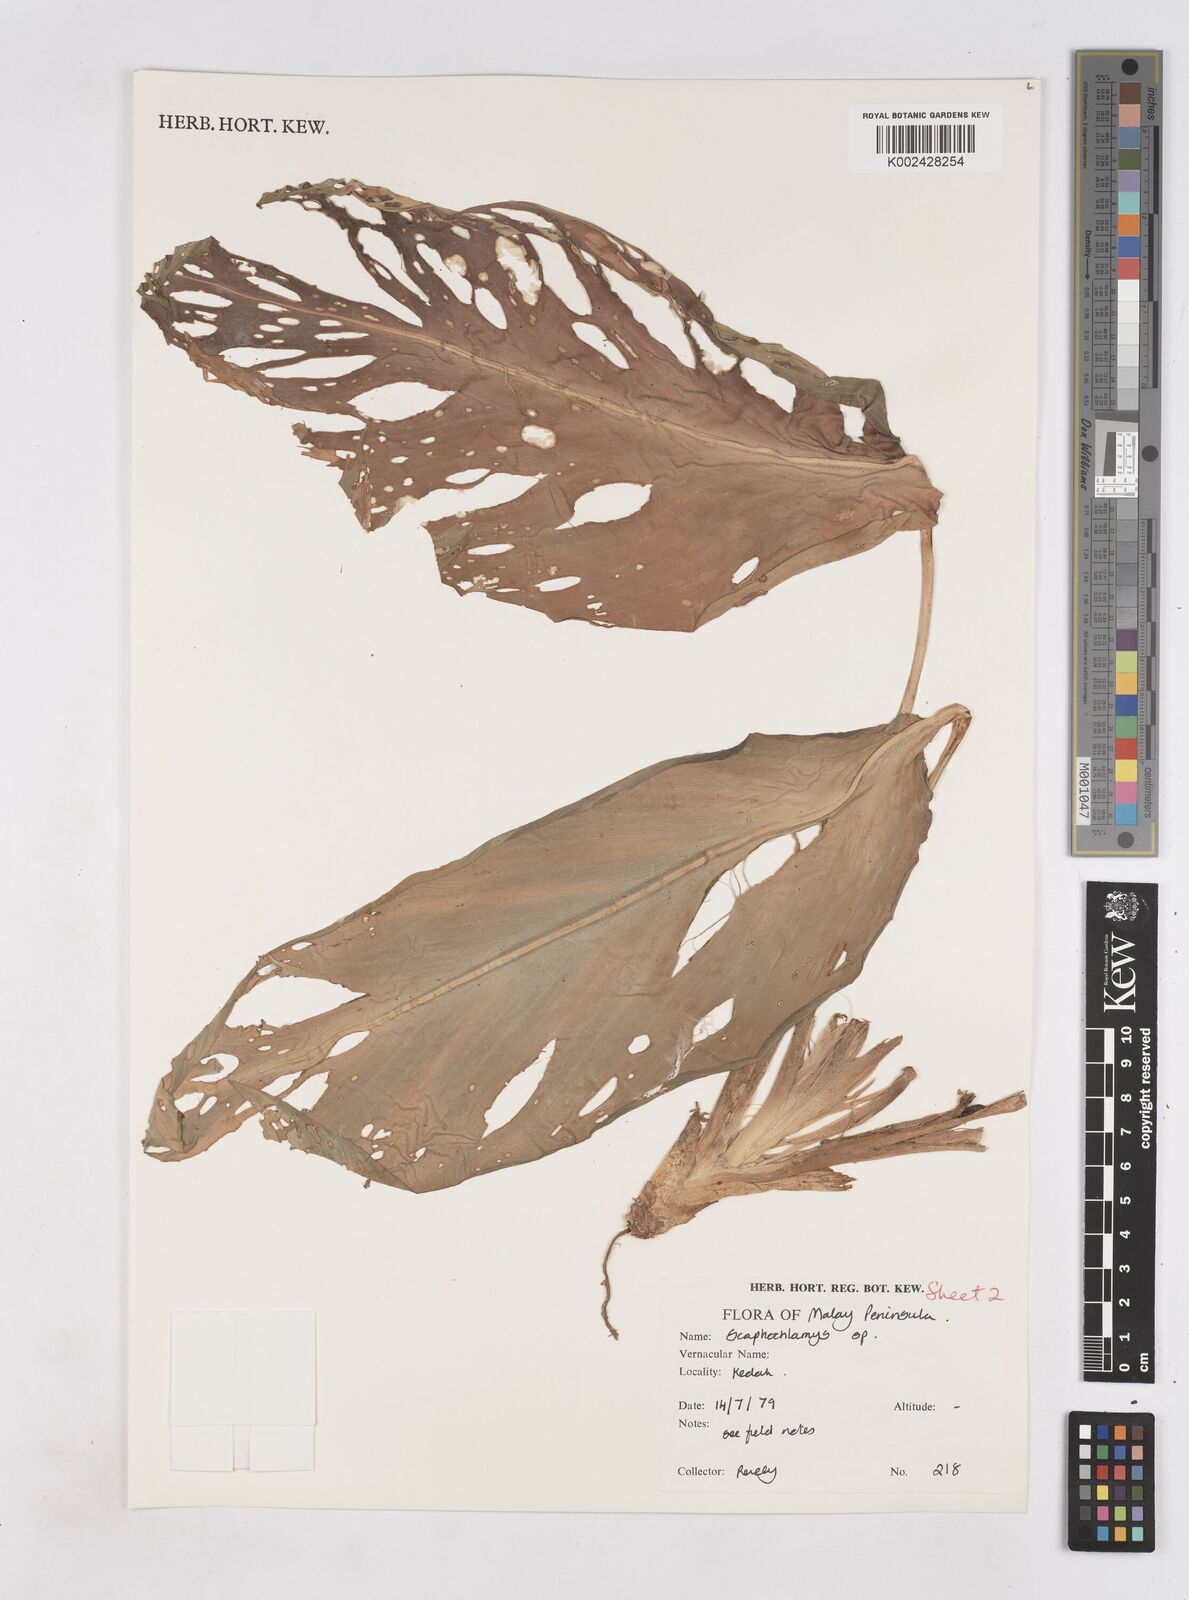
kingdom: Plantae
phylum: Tracheophyta
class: Liliopsida
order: Zingiberales
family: Zingiberaceae
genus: Boesenbergia
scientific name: Boesenbergia curtisii
